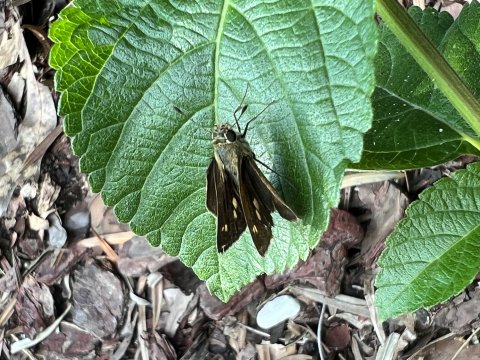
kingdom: Animalia
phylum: Arthropoda
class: Insecta
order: Lepidoptera
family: Hesperiidae
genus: Polites
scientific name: Polites egeremet
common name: Northern Broken-Dash
